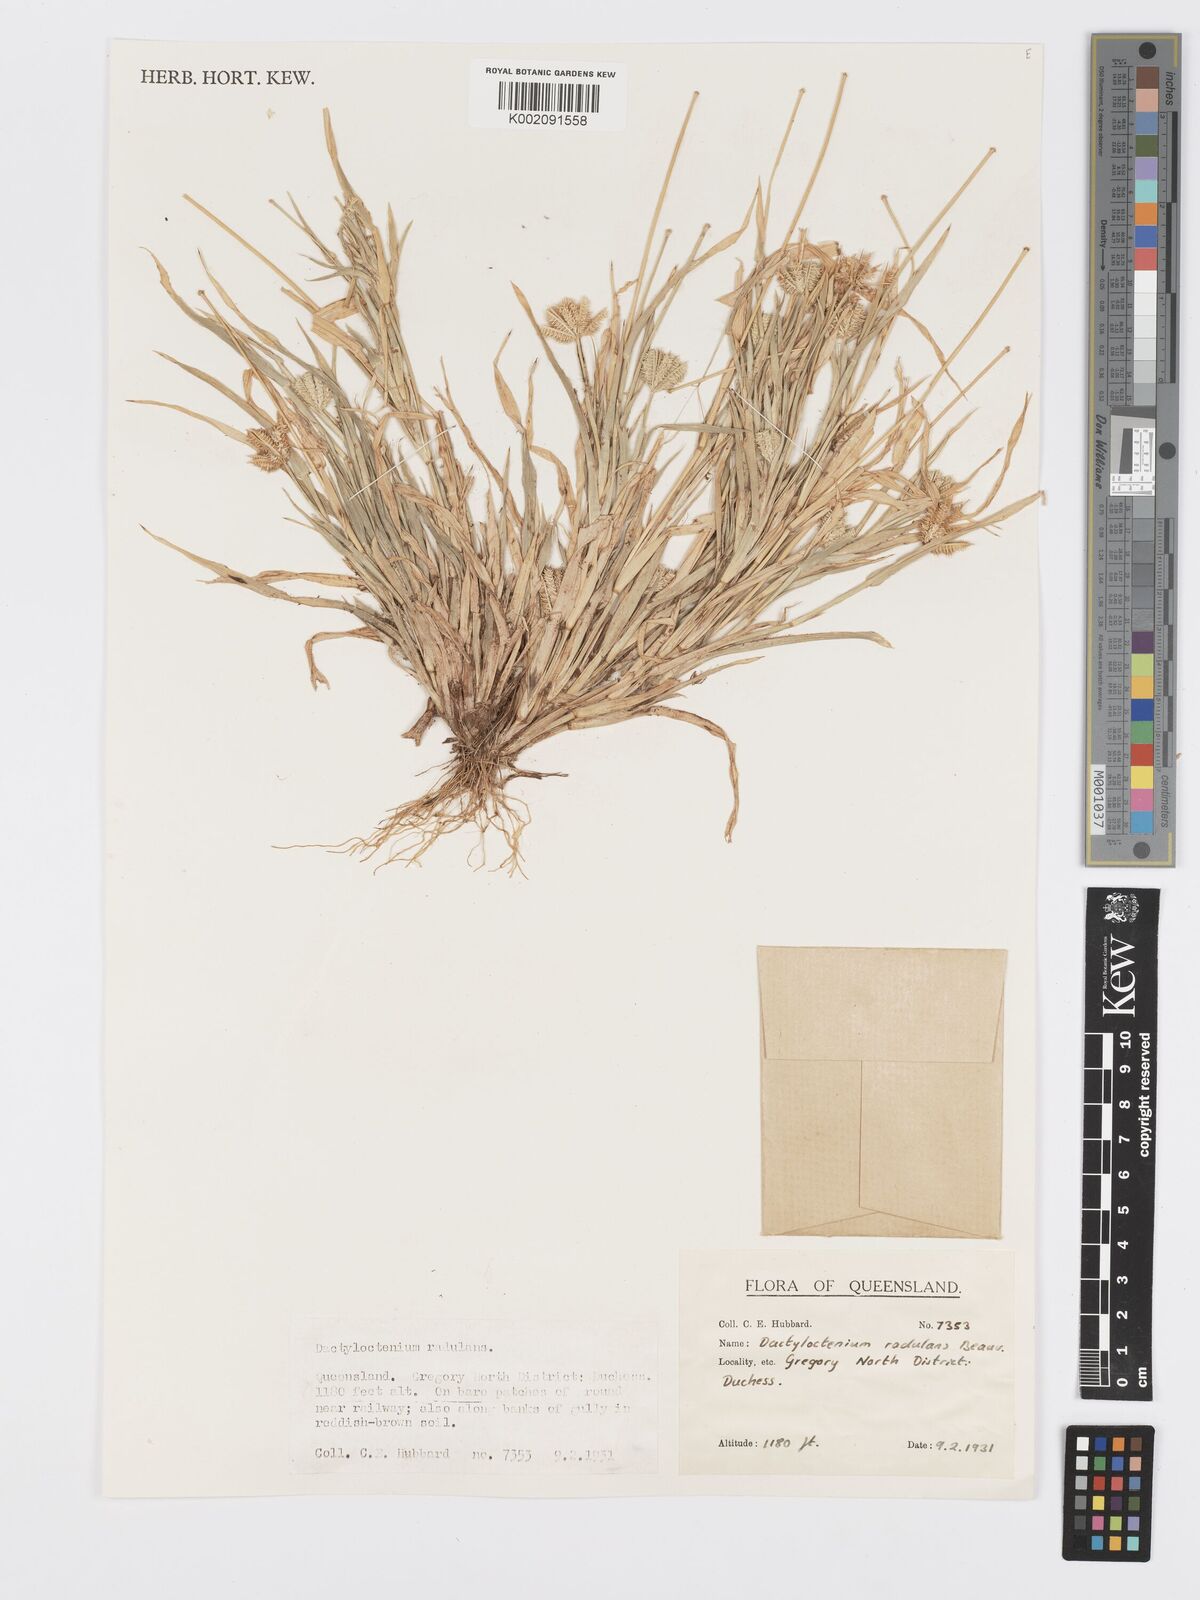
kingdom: Plantae
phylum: Tracheophyta
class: Liliopsida
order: Poales
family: Poaceae
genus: Dactyloctenium
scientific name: Dactyloctenium radulans
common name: Button-grass
